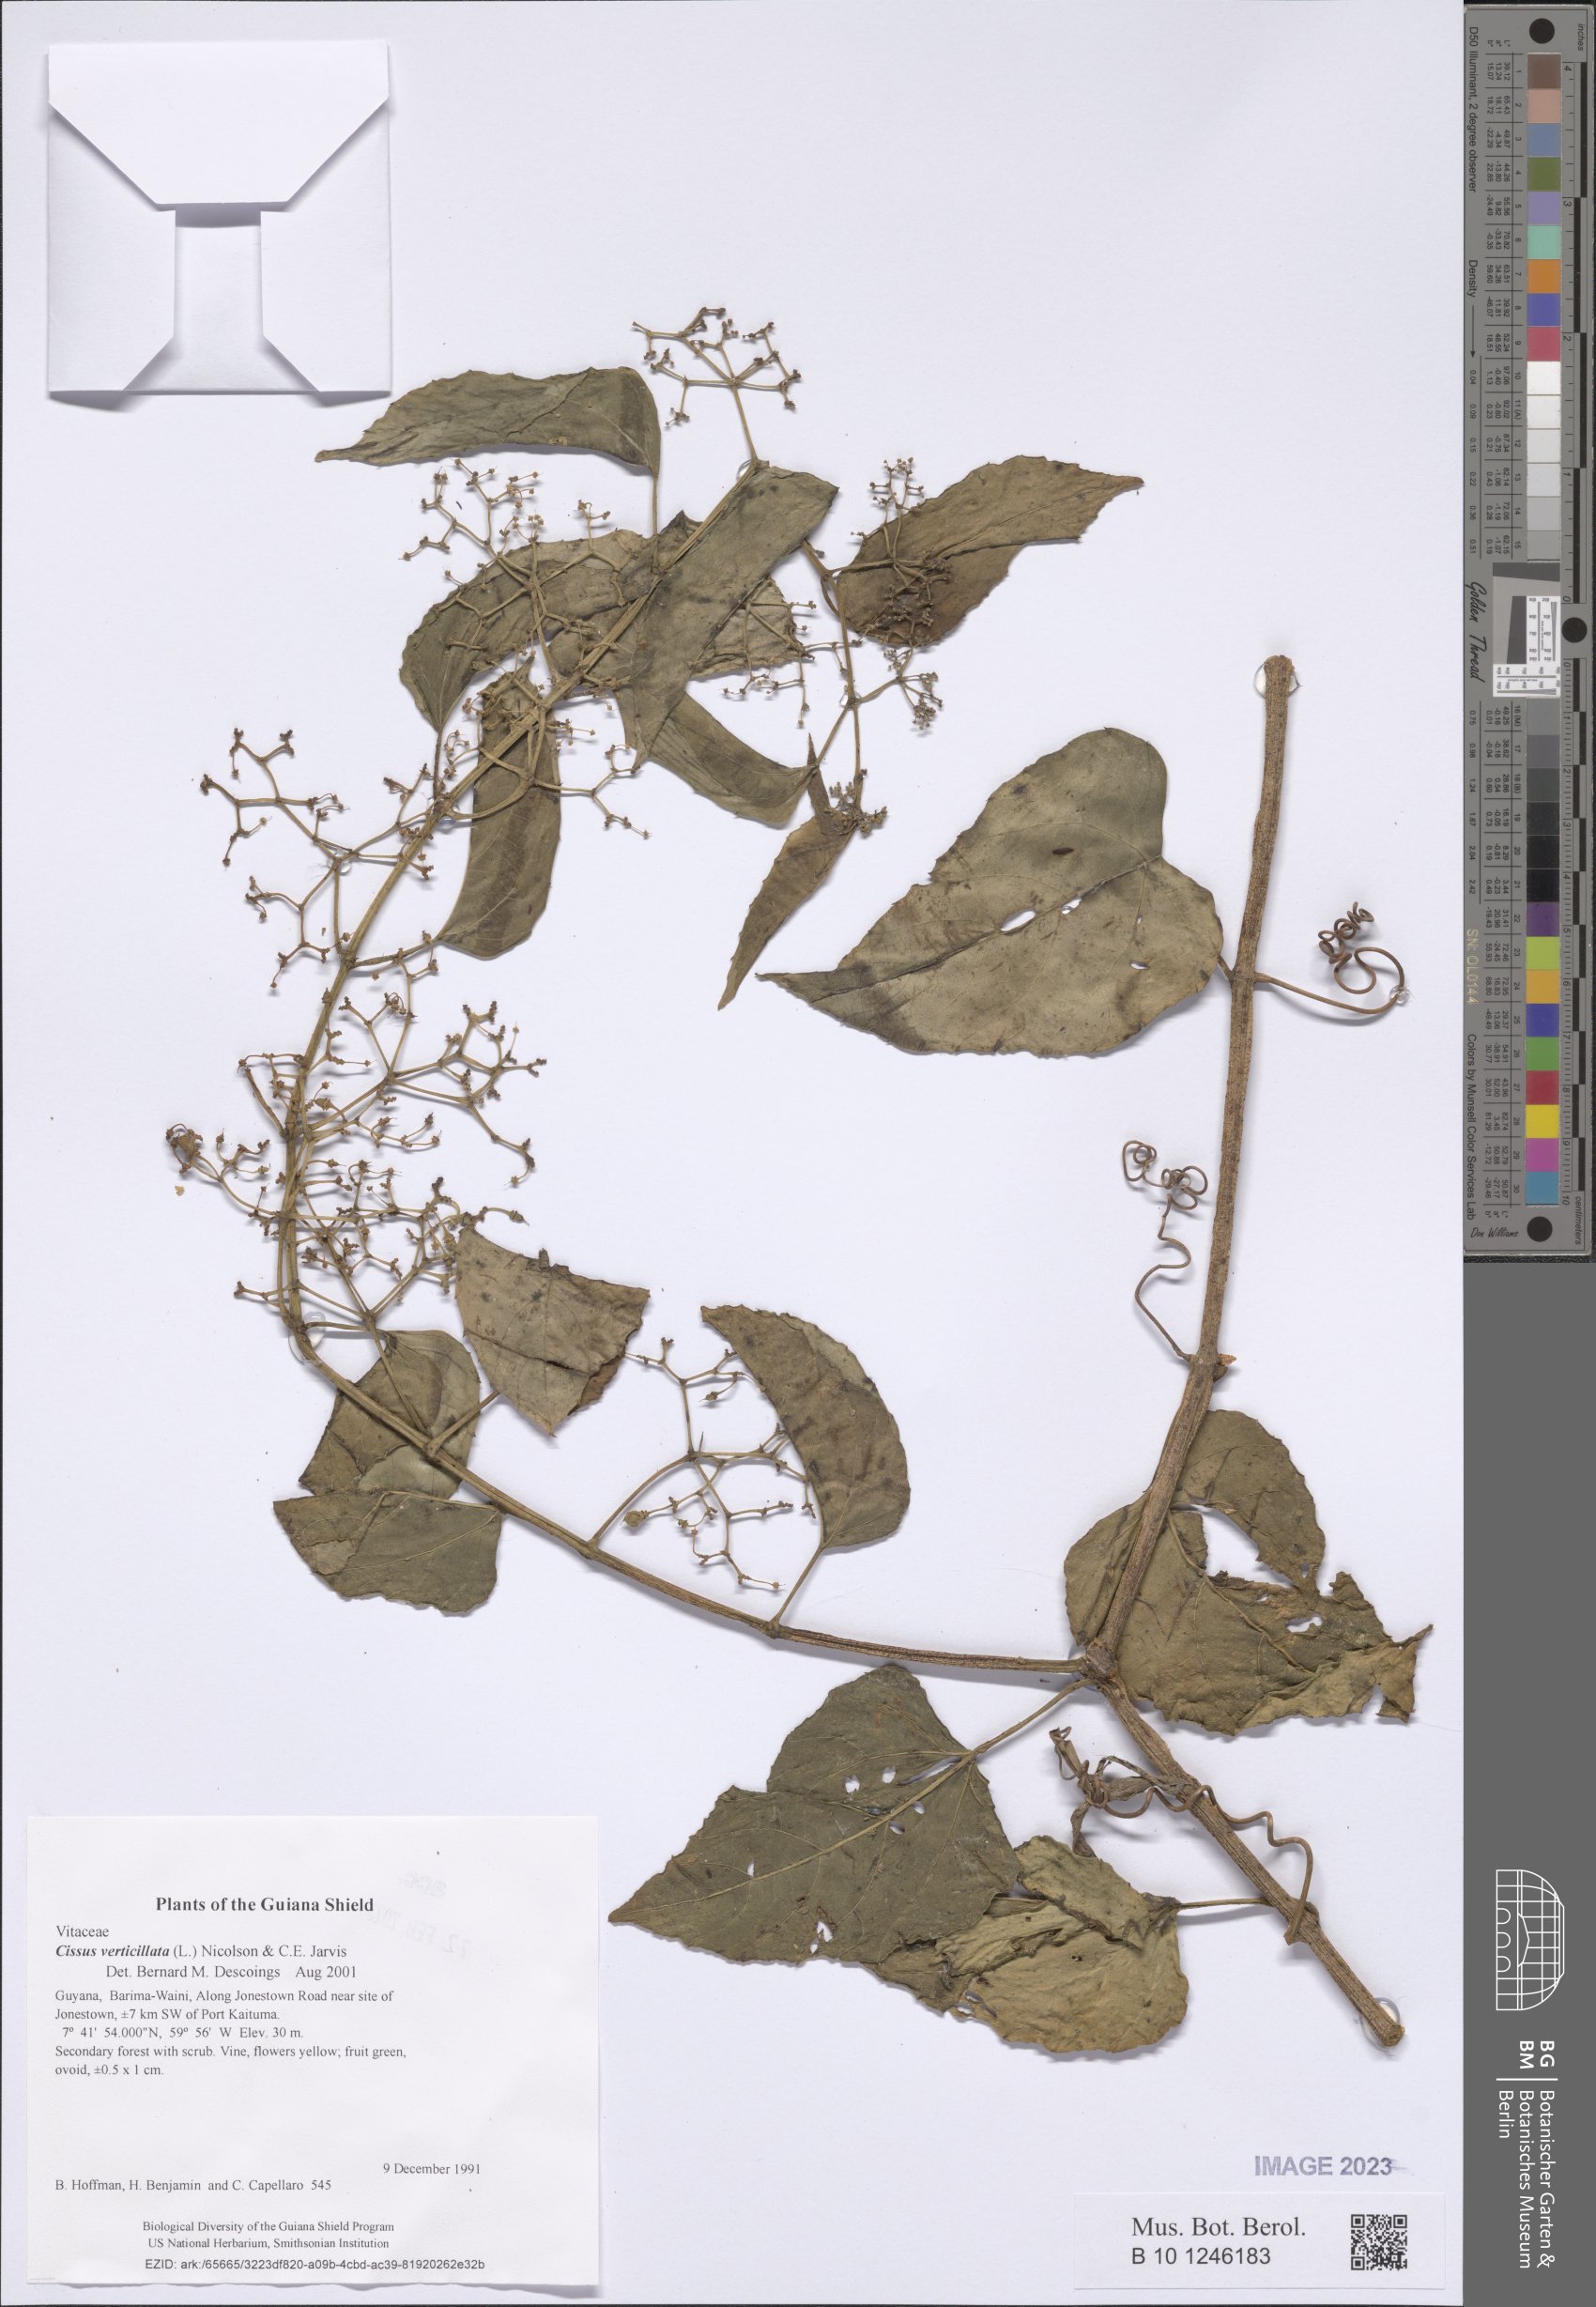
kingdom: Plantae
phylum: Tracheophyta
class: Magnoliopsida
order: Vitales
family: Vitaceae
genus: Cissus
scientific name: Cissus verticillata
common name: Princess vine
